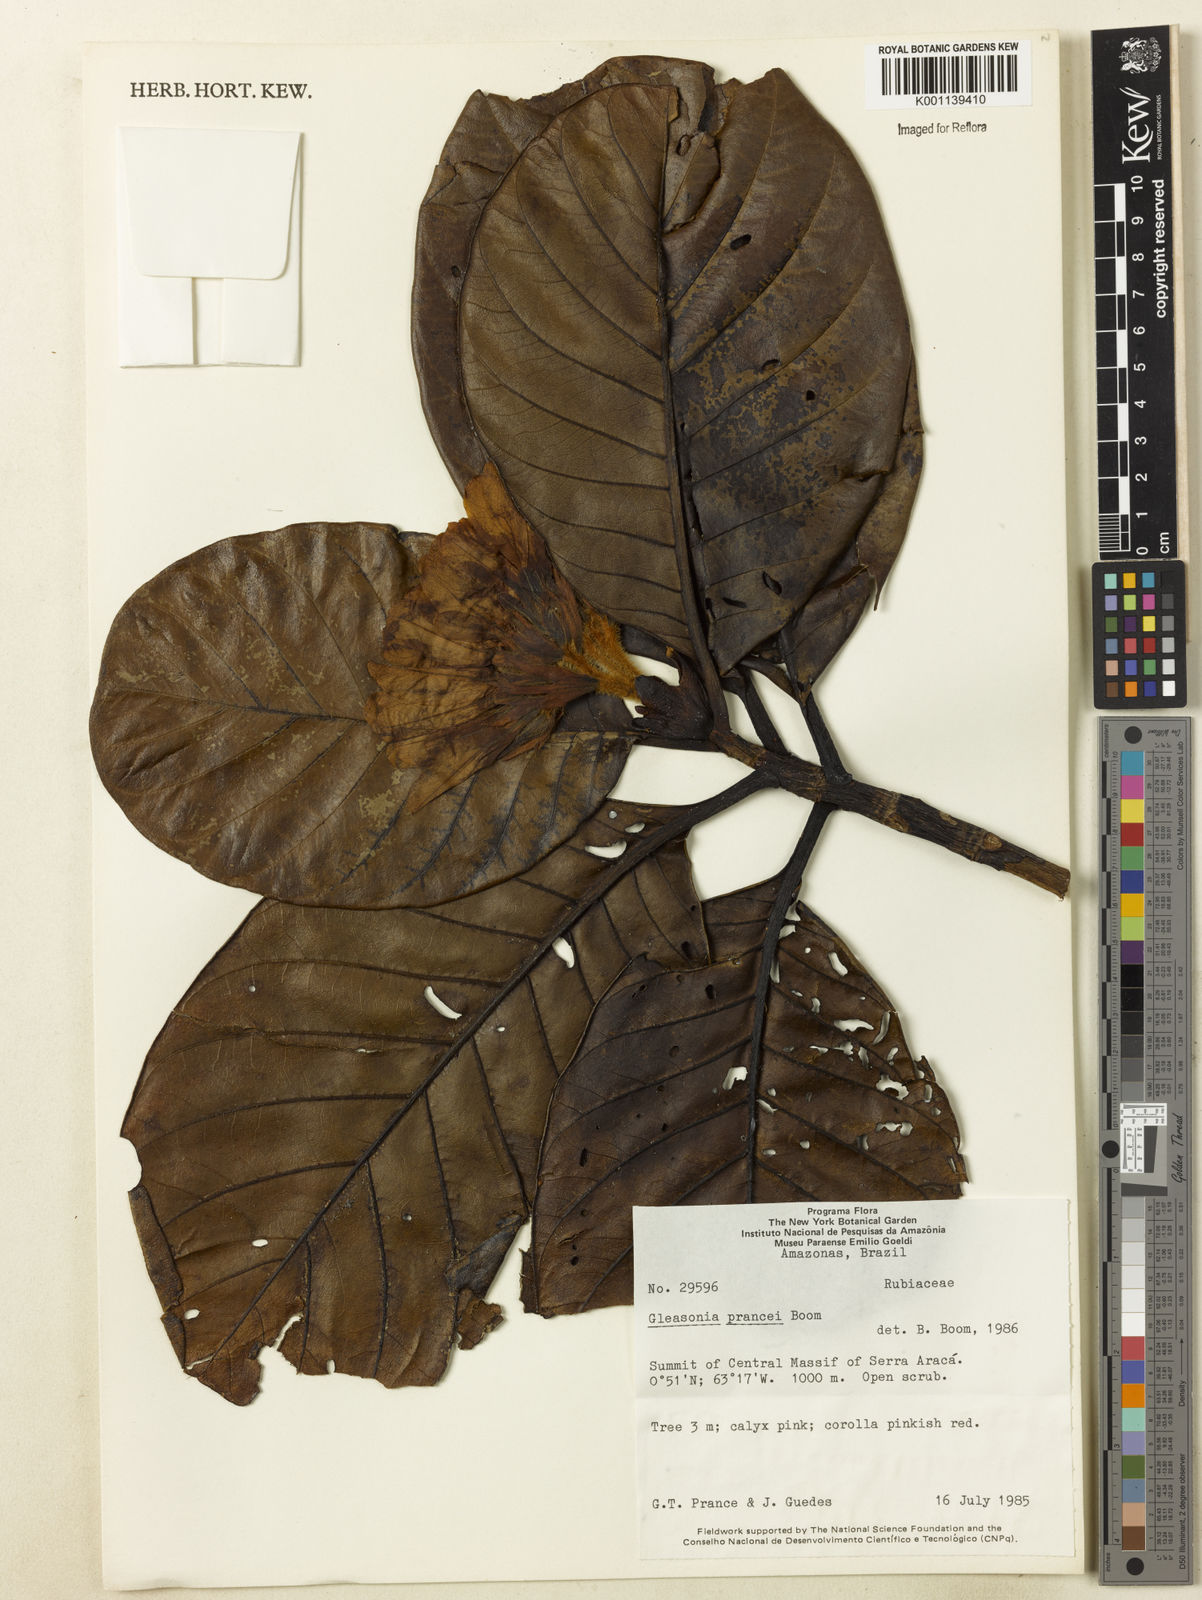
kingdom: Plantae
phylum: Tracheophyta
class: Magnoliopsida
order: Gentianales
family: Rubiaceae
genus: Gleasonia
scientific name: Gleasonia prancei
